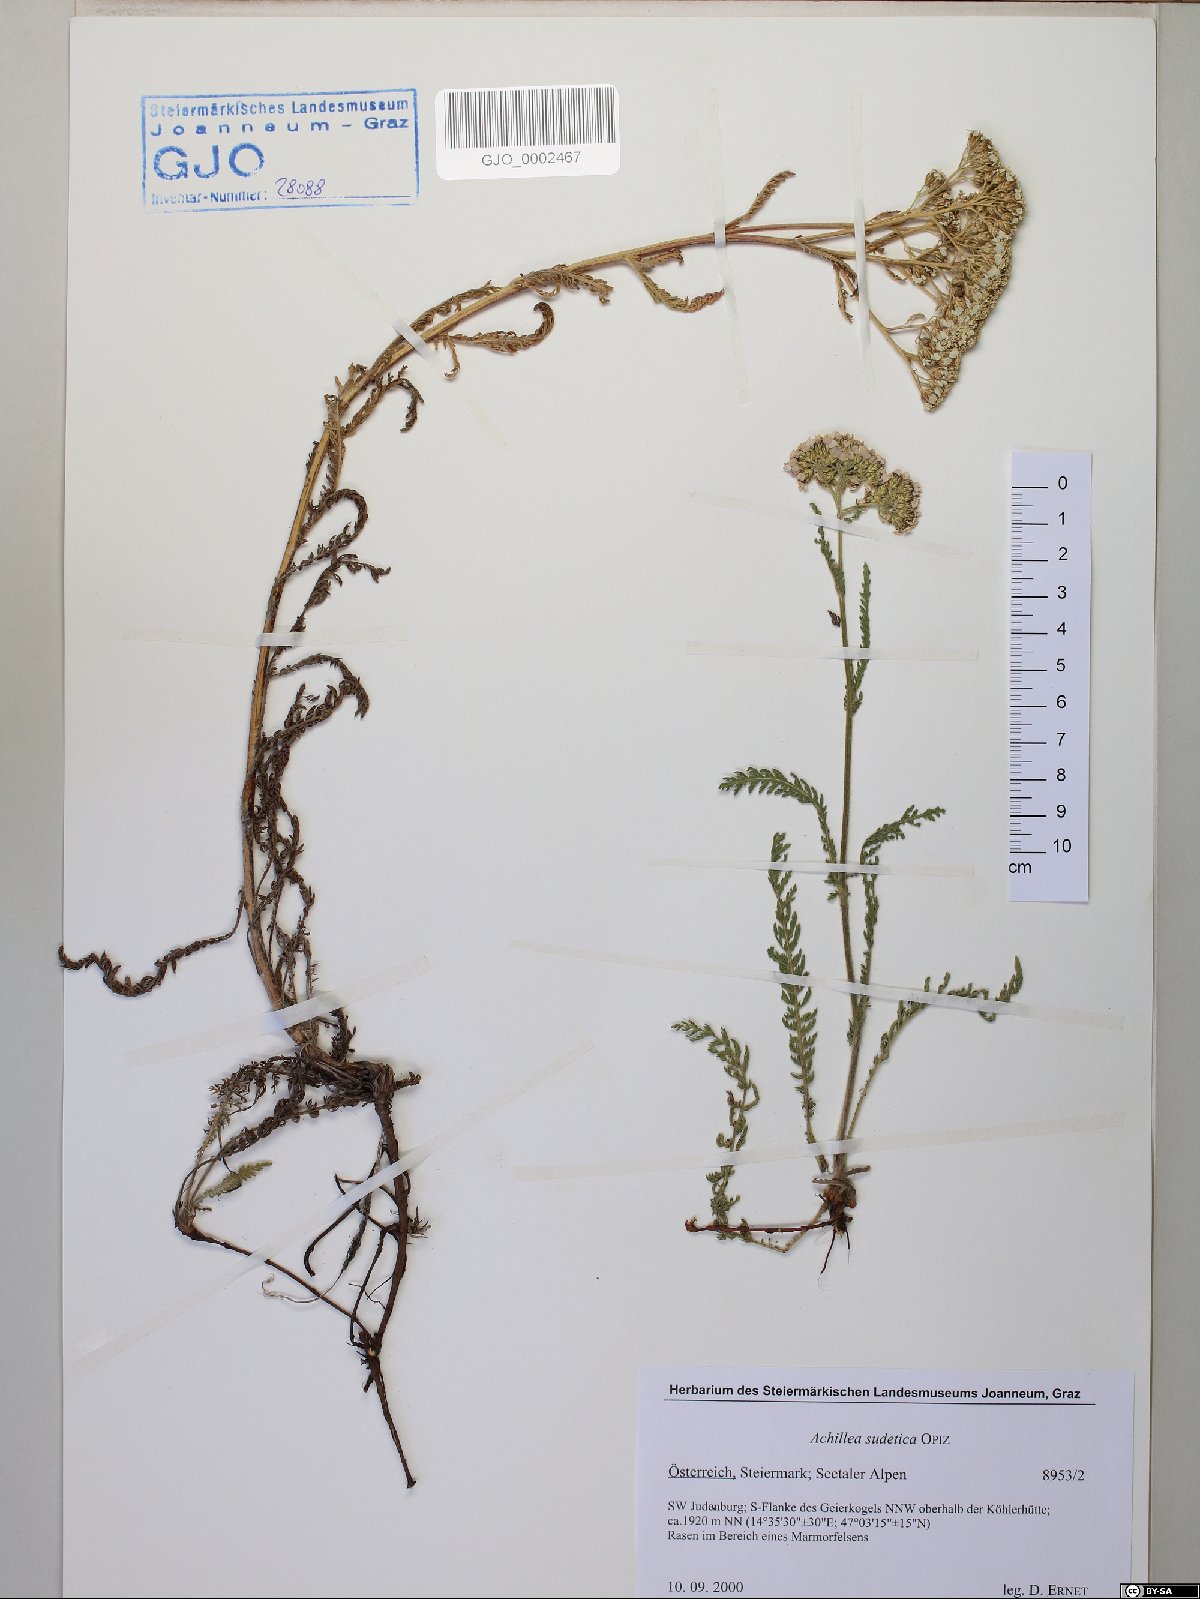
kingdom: Plantae
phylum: Tracheophyta
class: Magnoliopsida
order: Asterales
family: Asteraceae
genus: Achillea
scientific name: Achillea millefolium
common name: Yarrow
